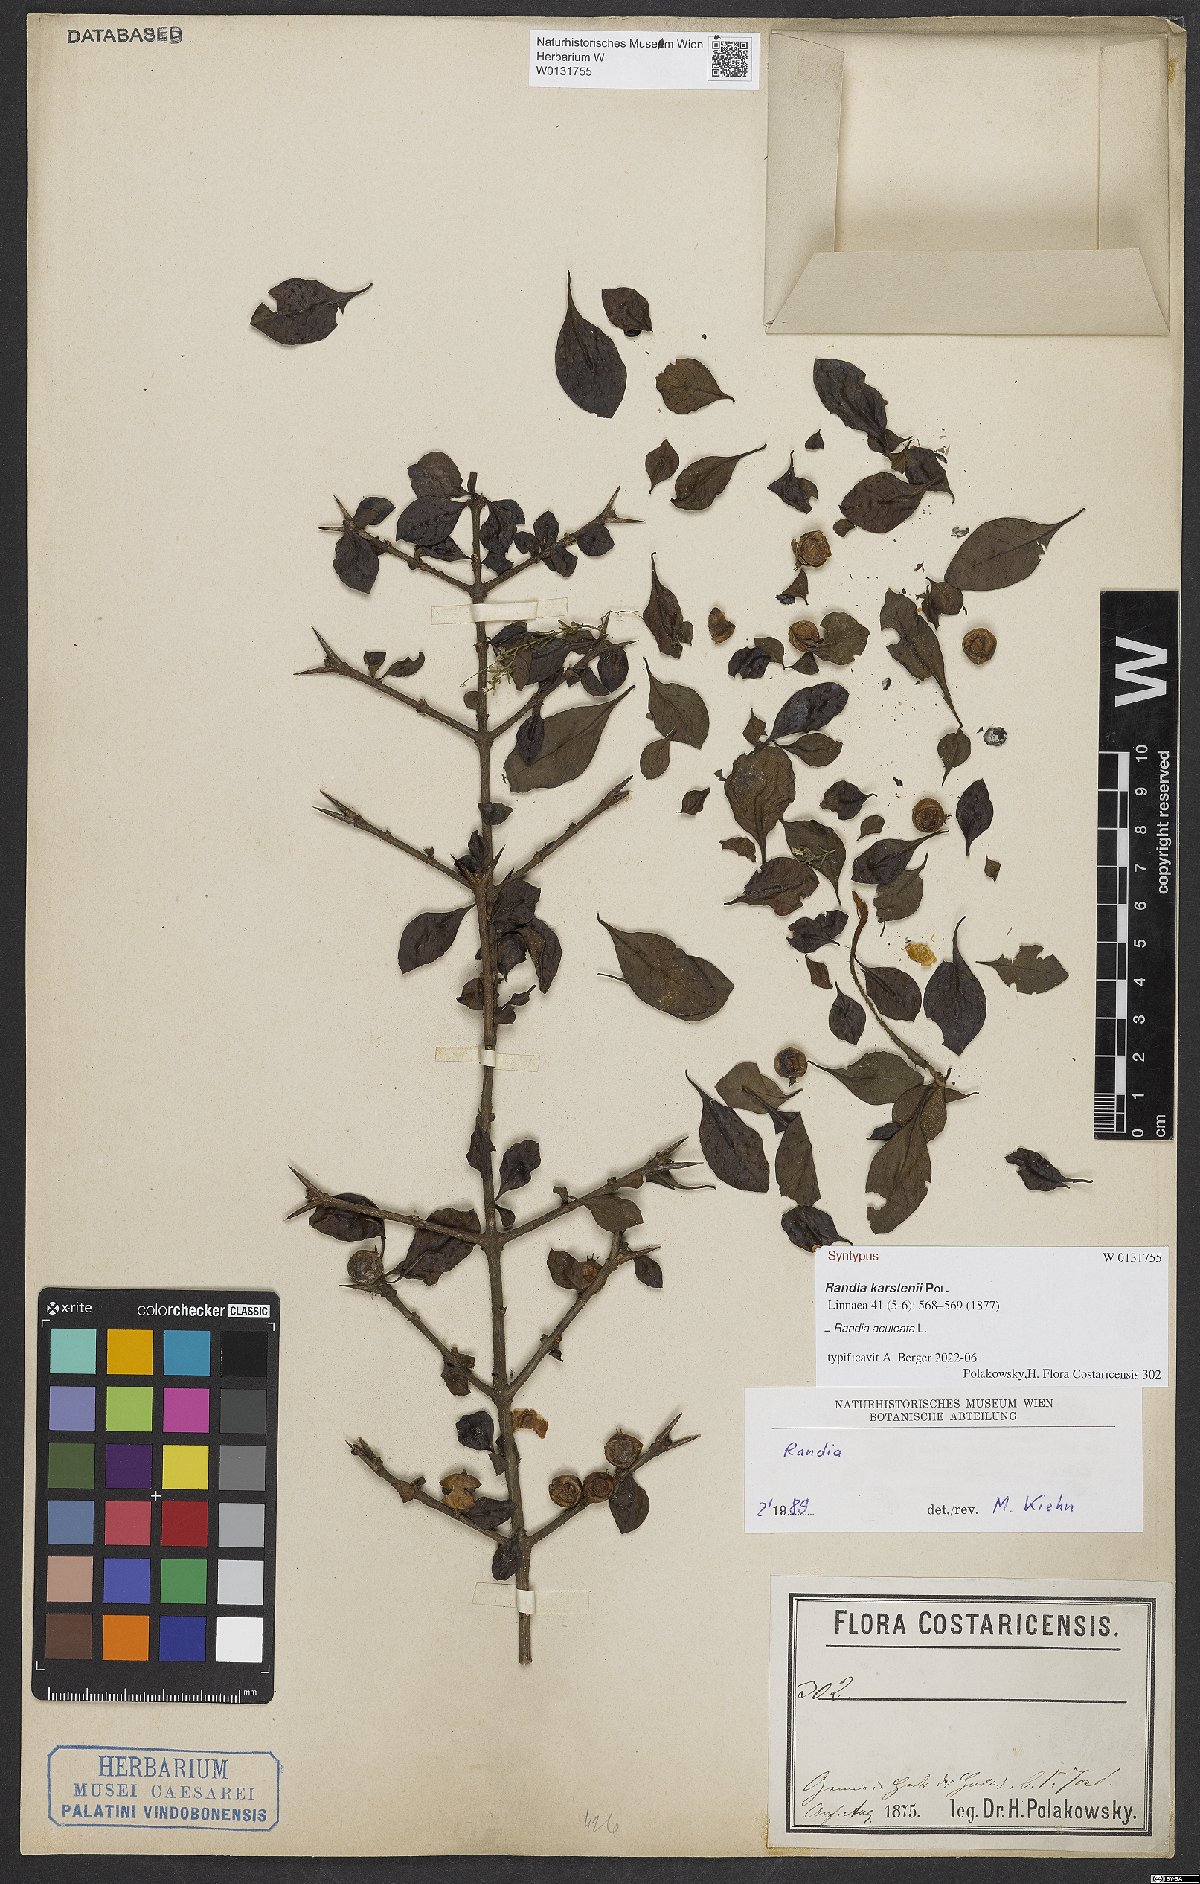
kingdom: Plantae
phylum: Tracheophyta
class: Magnoliopsida
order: Gentianales
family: Rubiaceae
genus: Randia
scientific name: Randia aculeata
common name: Inkberry
